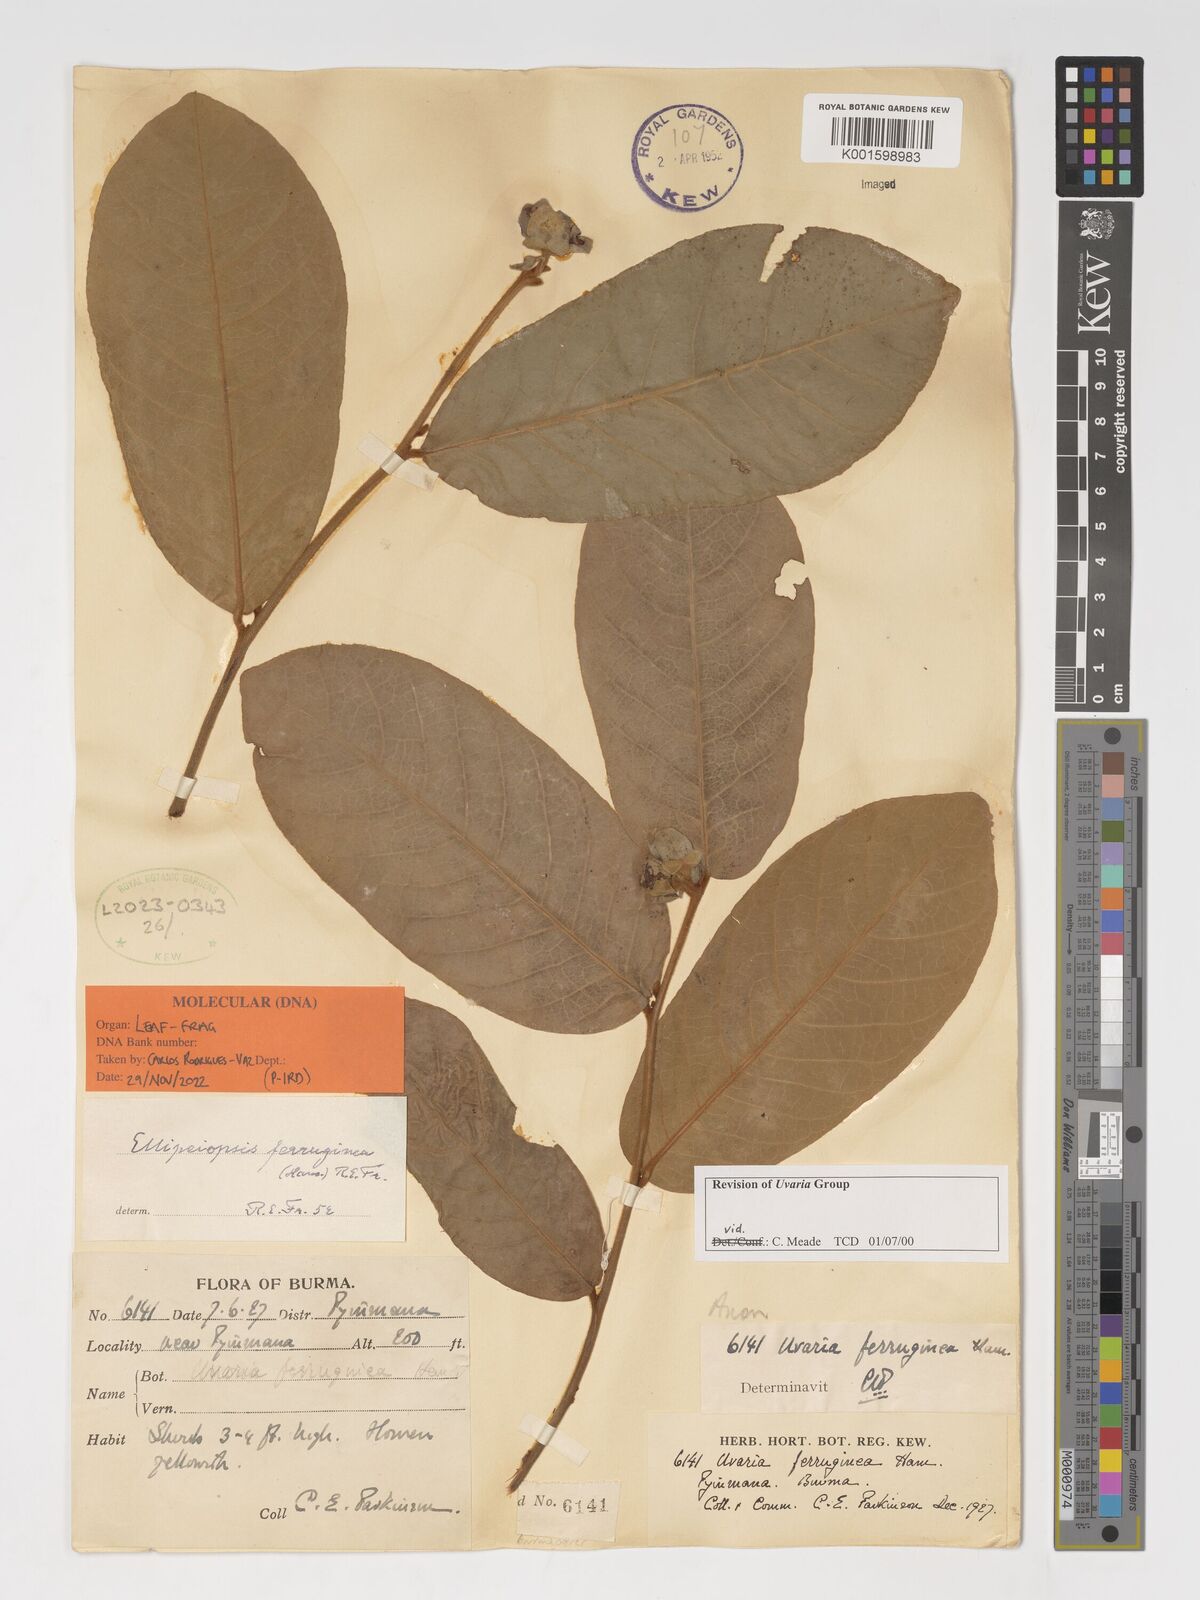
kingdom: Plantae
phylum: Tracheophyta
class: Magnoliopsida
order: Magnoliales
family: Annonaceae
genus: Uvaria
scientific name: Uvaria
